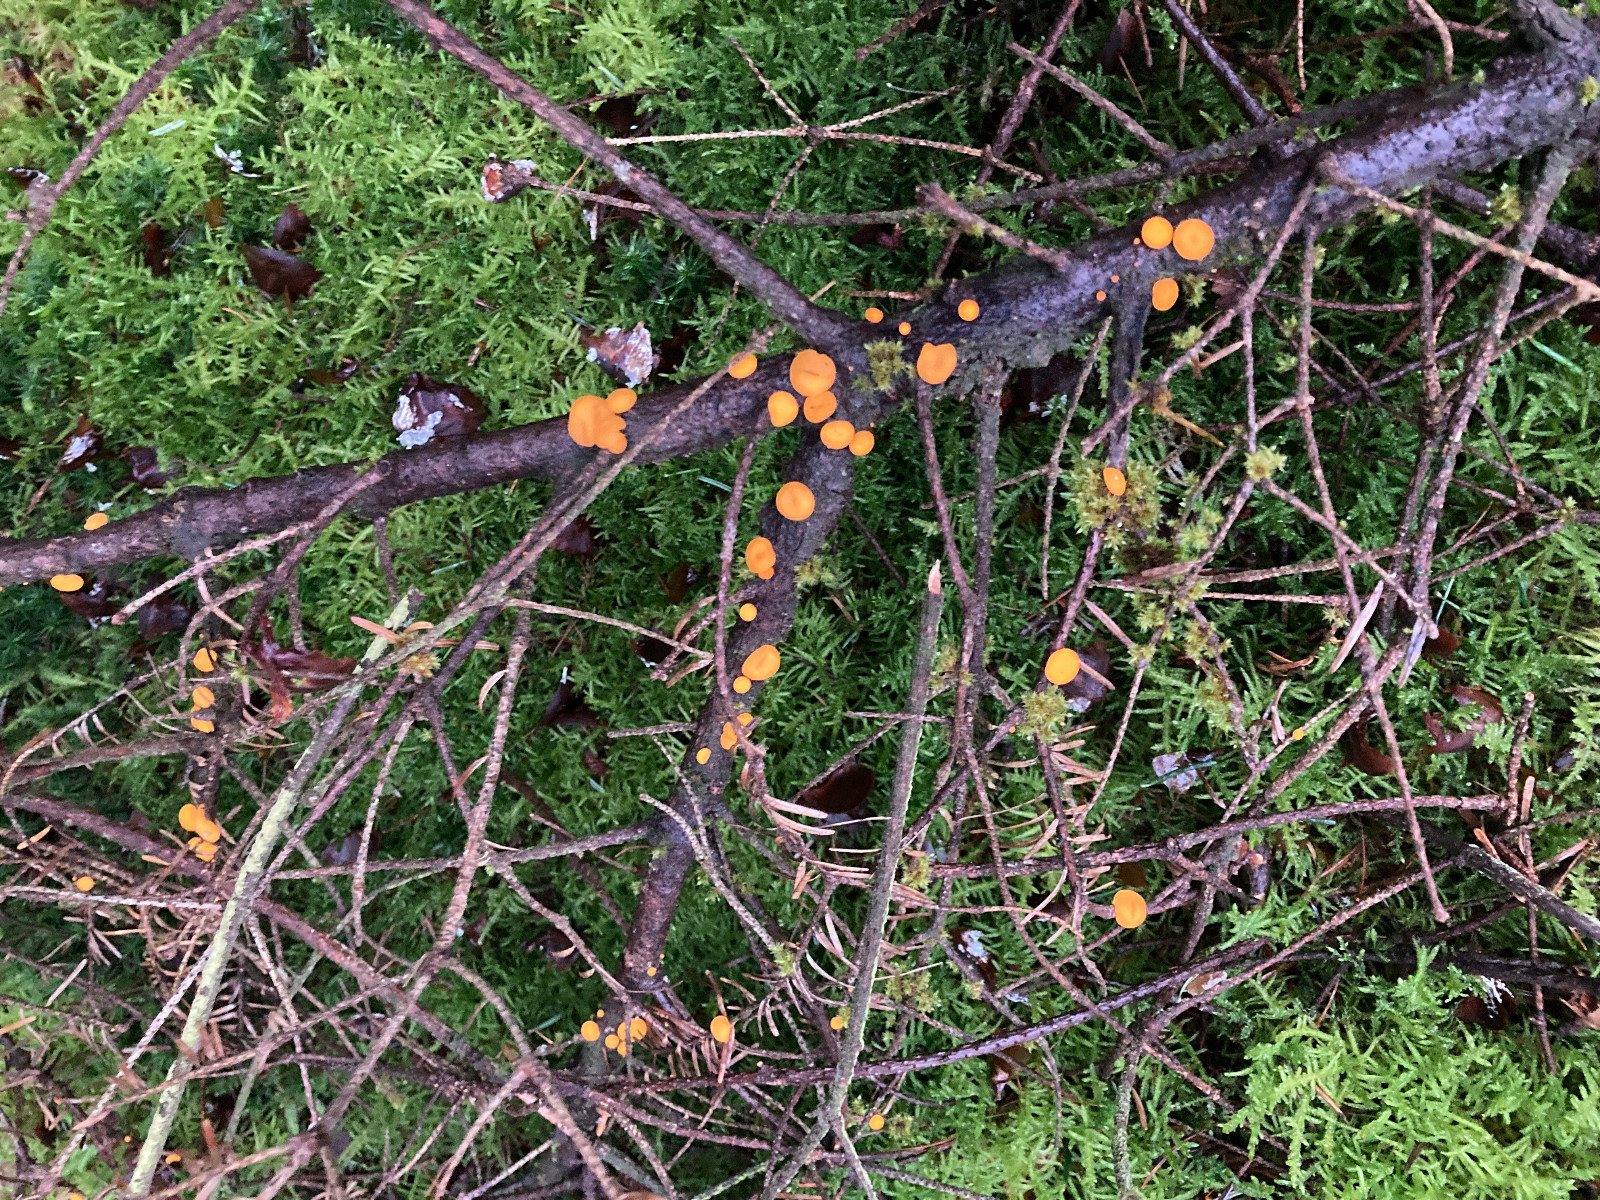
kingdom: Fungi
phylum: Ascomycota
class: Pezizomycetes
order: Pezizales
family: Sarcoscyphaceae
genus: Pithya
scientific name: Pithya vulgaris
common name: stor dukatbæger
